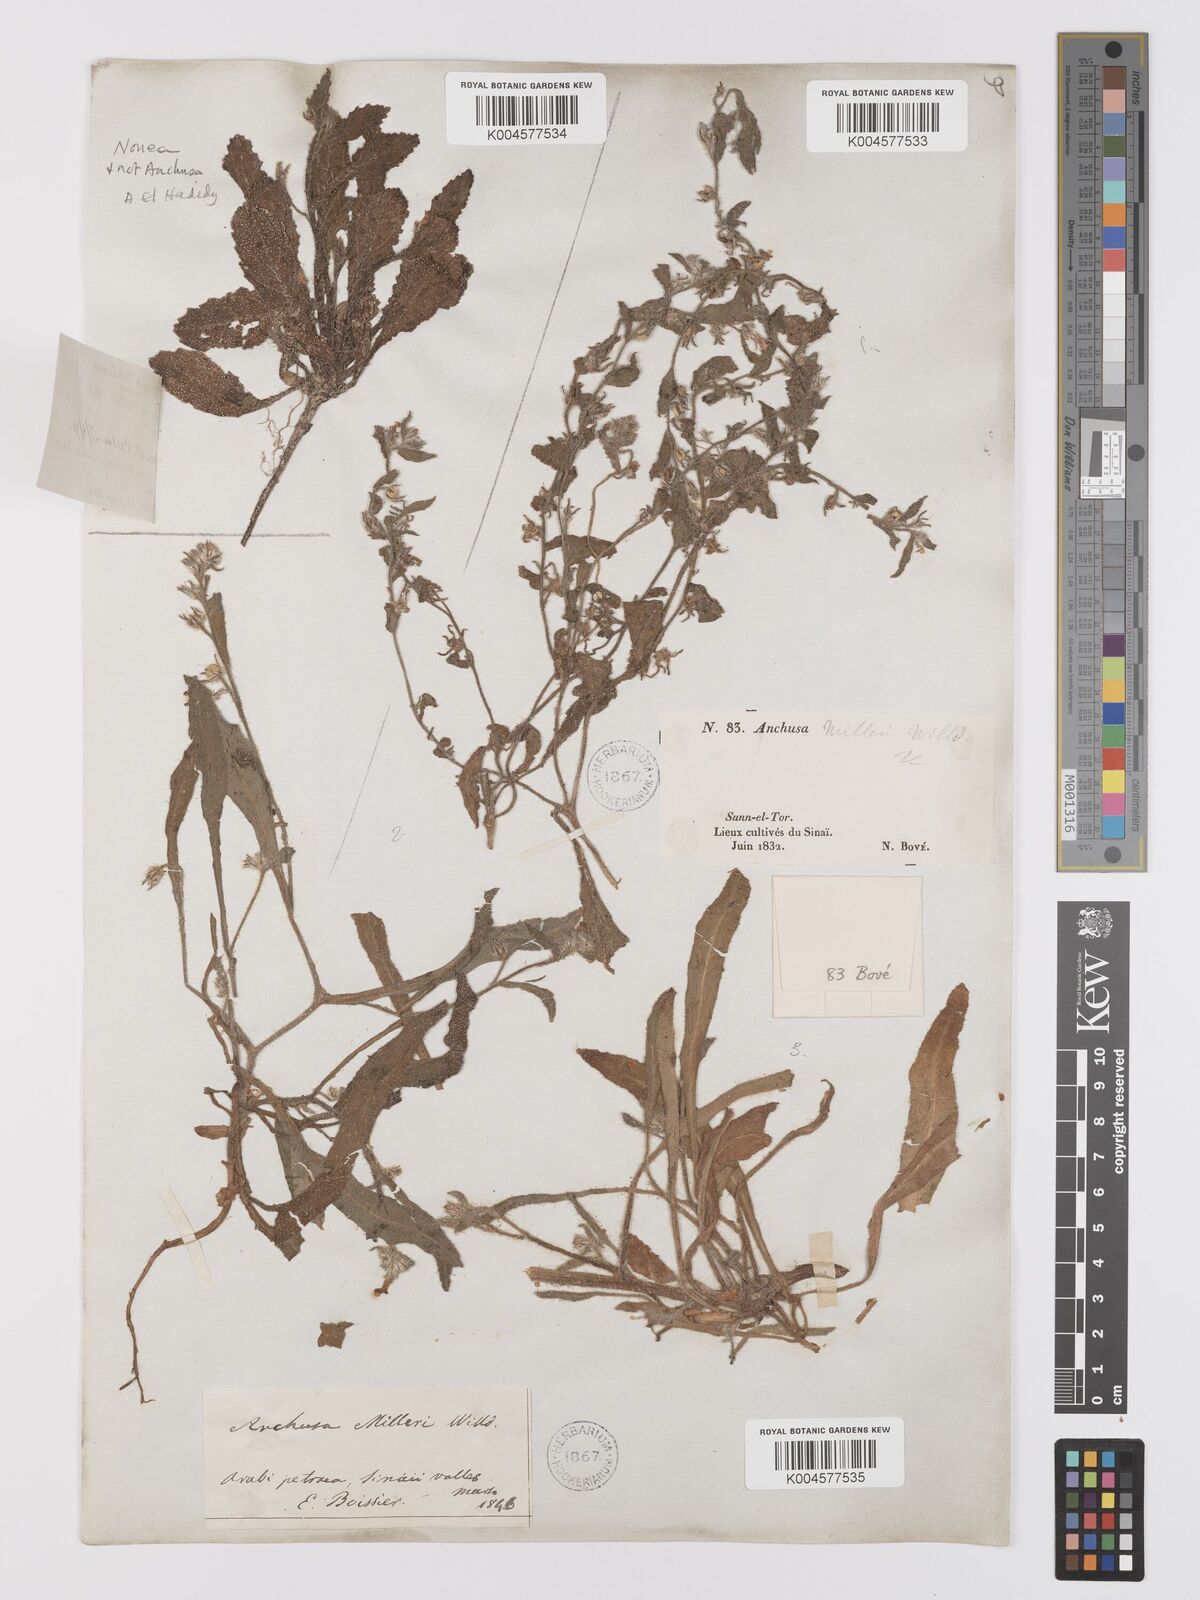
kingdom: Plantae
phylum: Tracheophyta
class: Magnoliopsida
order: Boraginales
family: Boraginaceae
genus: Anchusa
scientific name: Anchusa milleri
